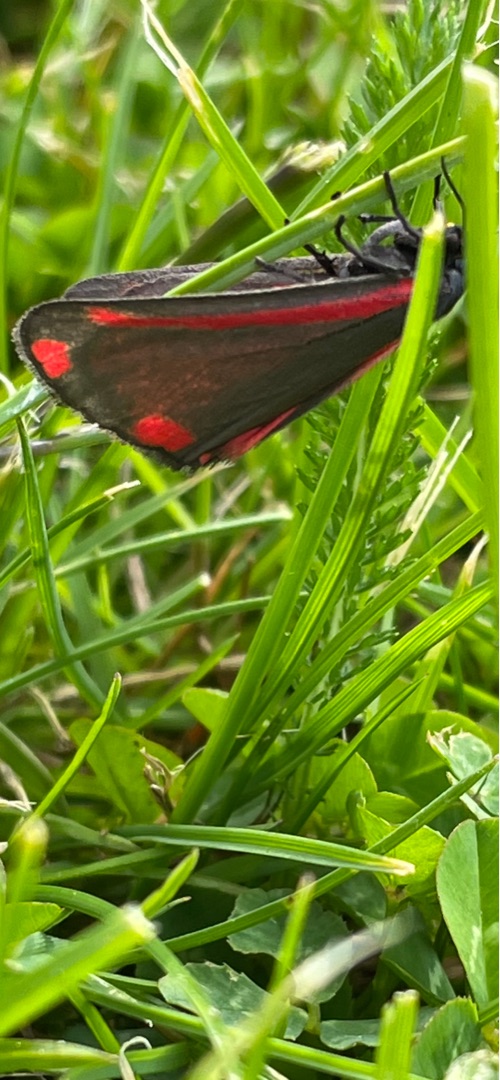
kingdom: Animalia
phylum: Arthropoda
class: Insecta
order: Lepidoptera
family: Erebidae
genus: Tyria
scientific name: Tyria jacobaeae
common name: Blodplet
